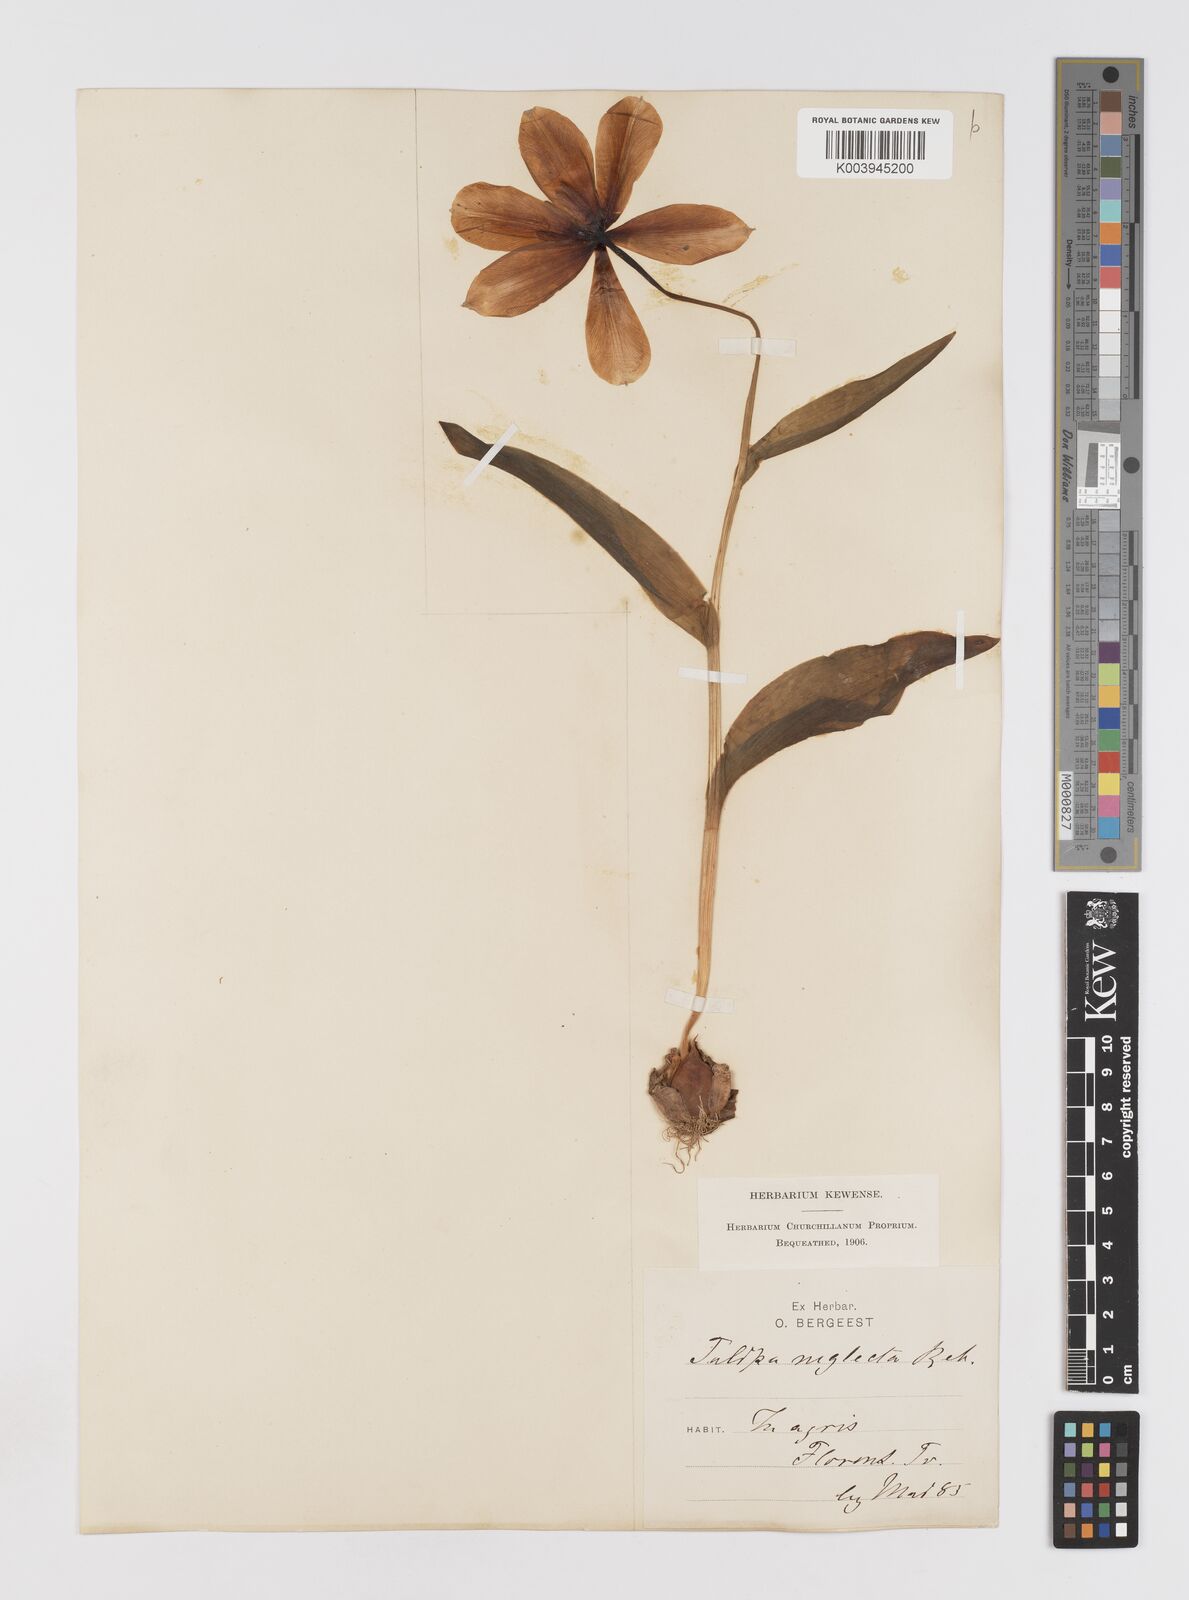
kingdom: Plantae
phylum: Tracheophyta
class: Liliopsida
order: Liliales
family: Liliaceae
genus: Tulipa
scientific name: Tulipa
